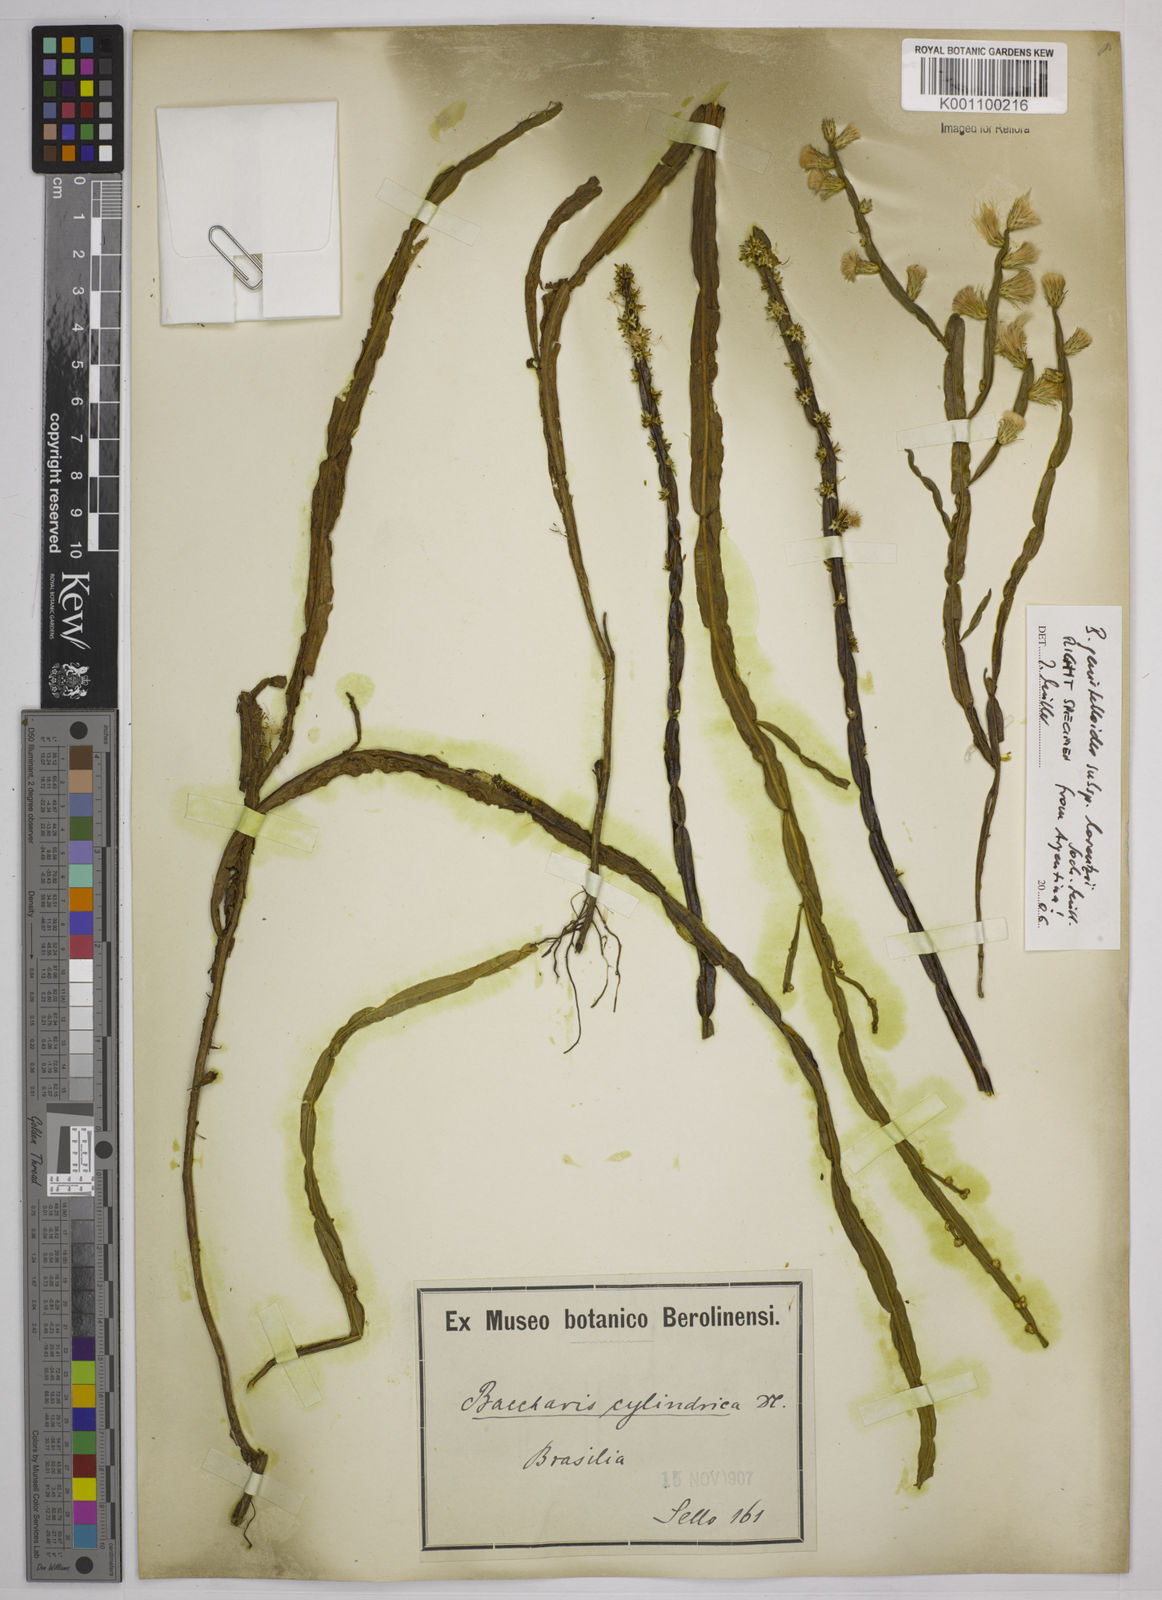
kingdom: Plantae
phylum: Tracheophyta
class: Magnoliopsida
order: Asterales
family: Asteraceae
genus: Baccharis
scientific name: Baccharis
